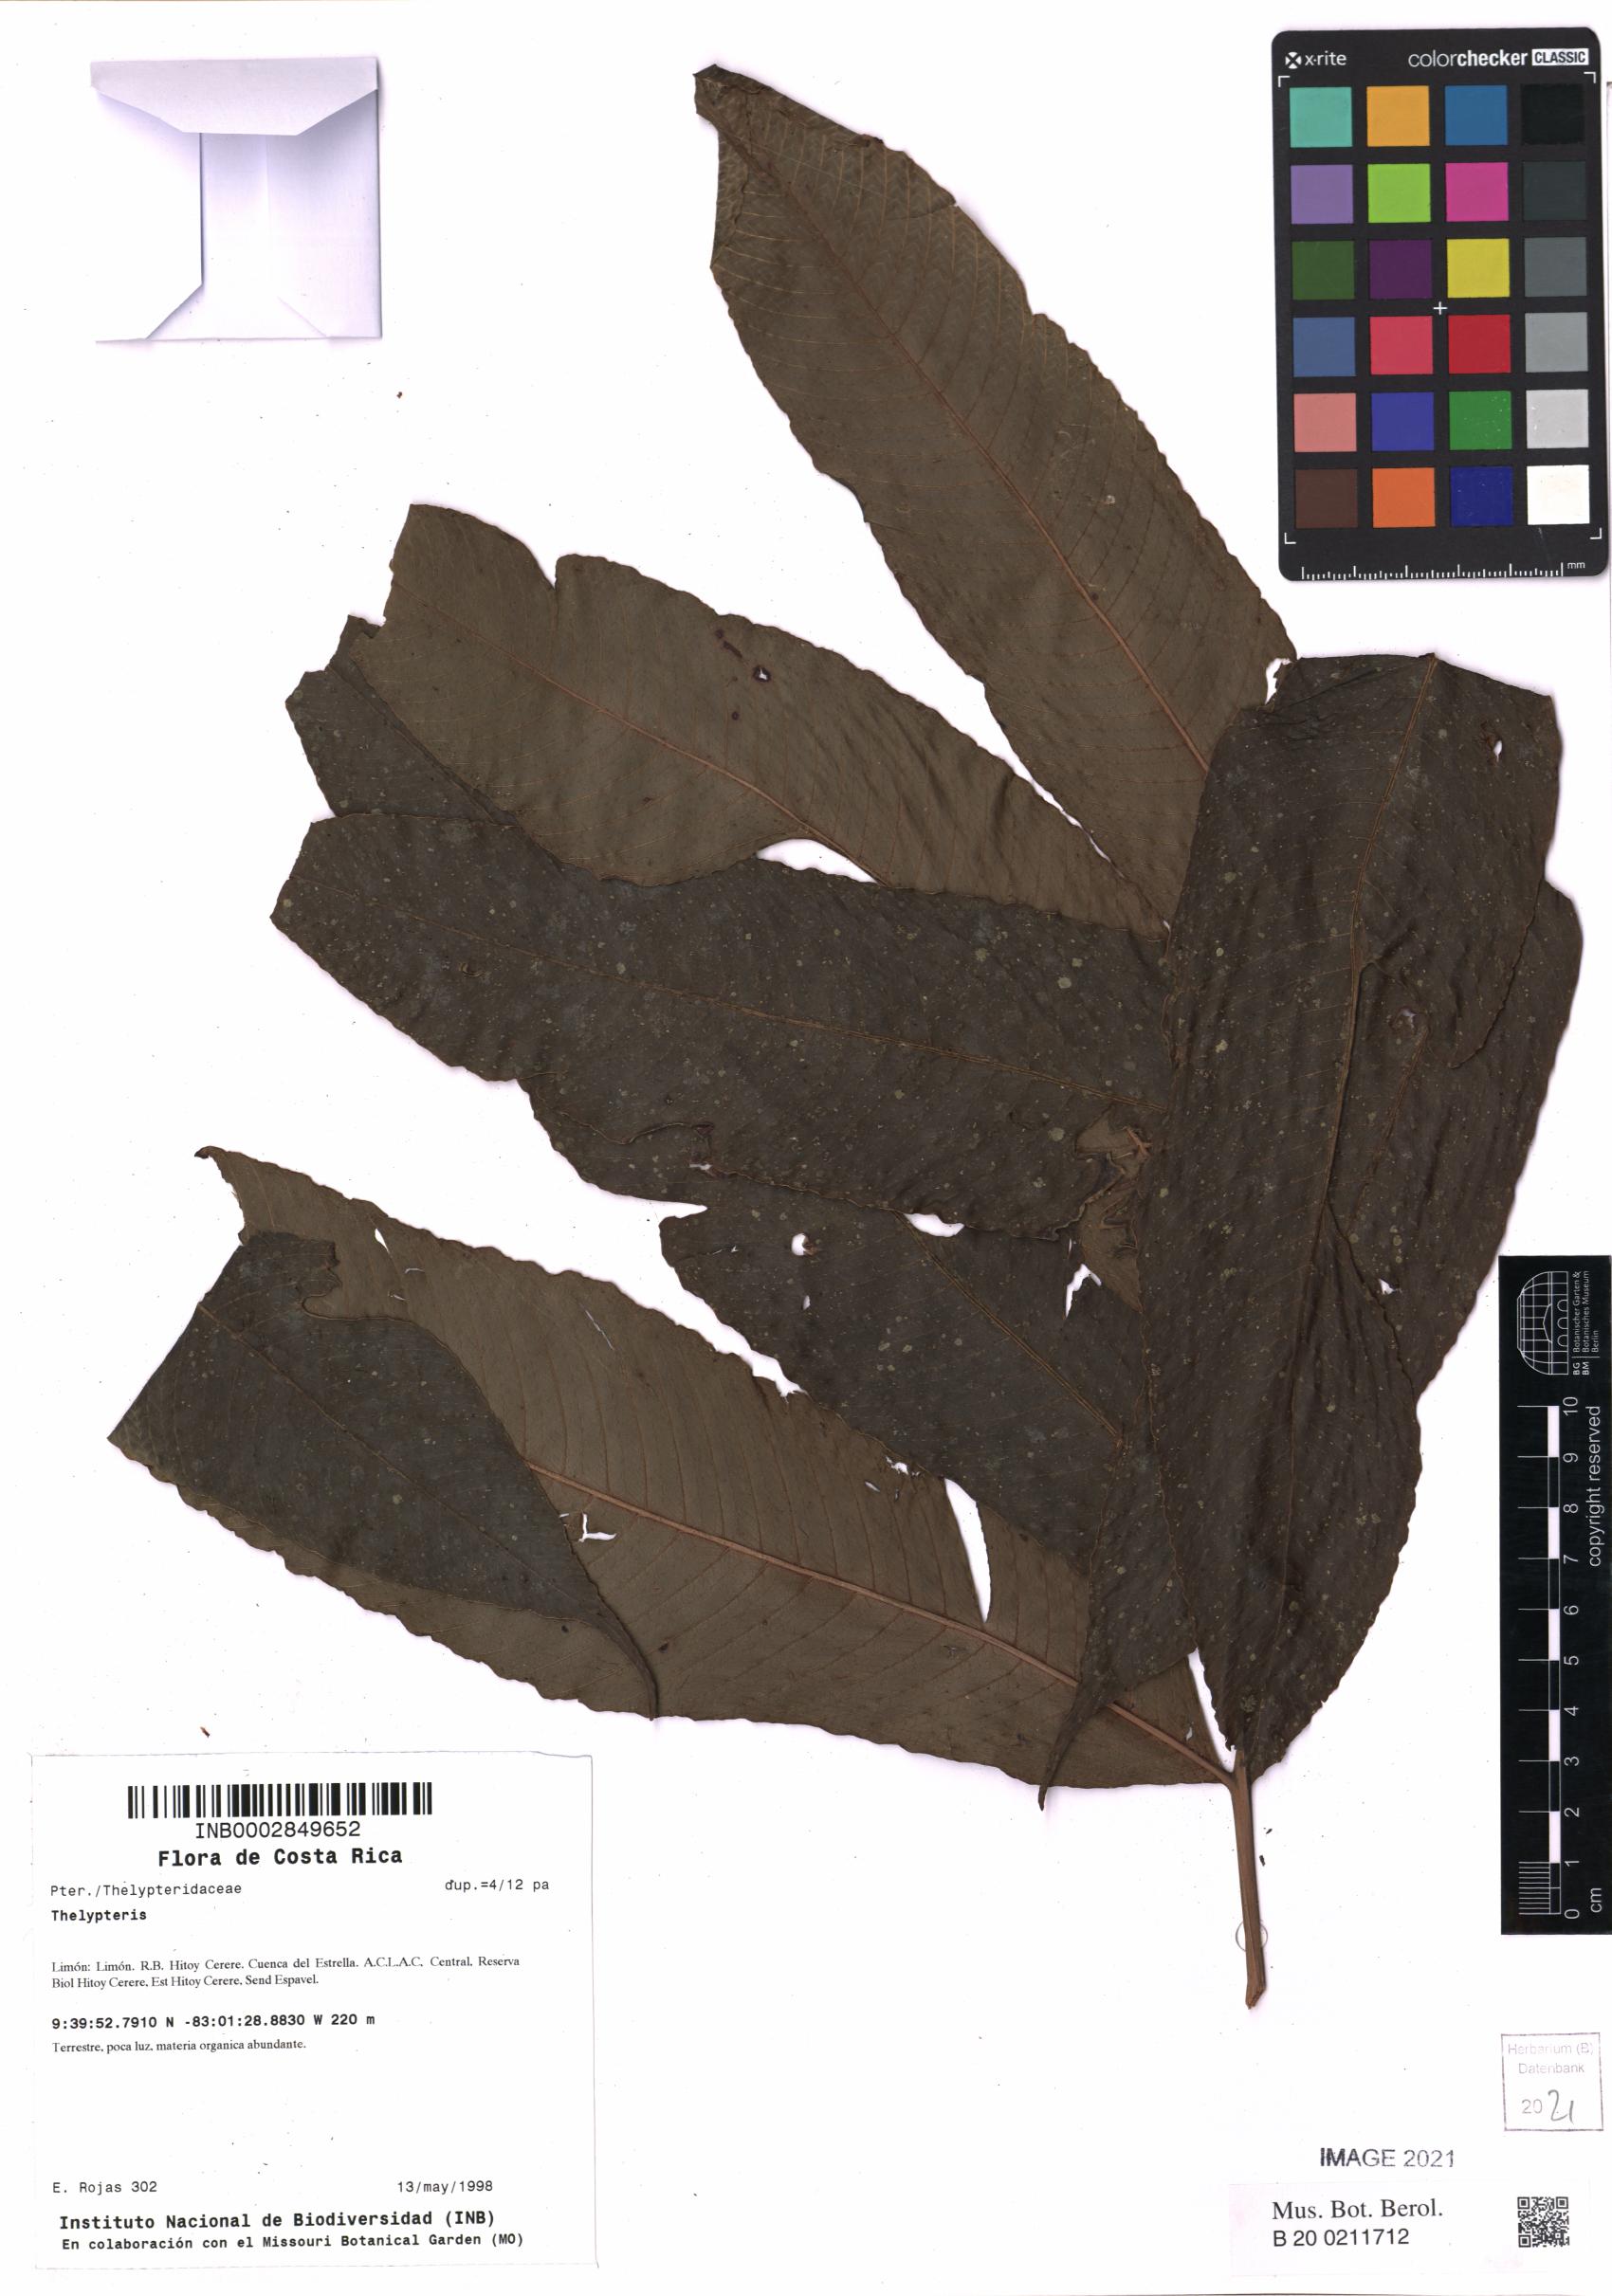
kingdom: Plantae
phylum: Tracheophyta
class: Polypodiopsida
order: Polypodiales
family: Thelypteridaceae
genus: Thelypteris
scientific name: Thelypteris
